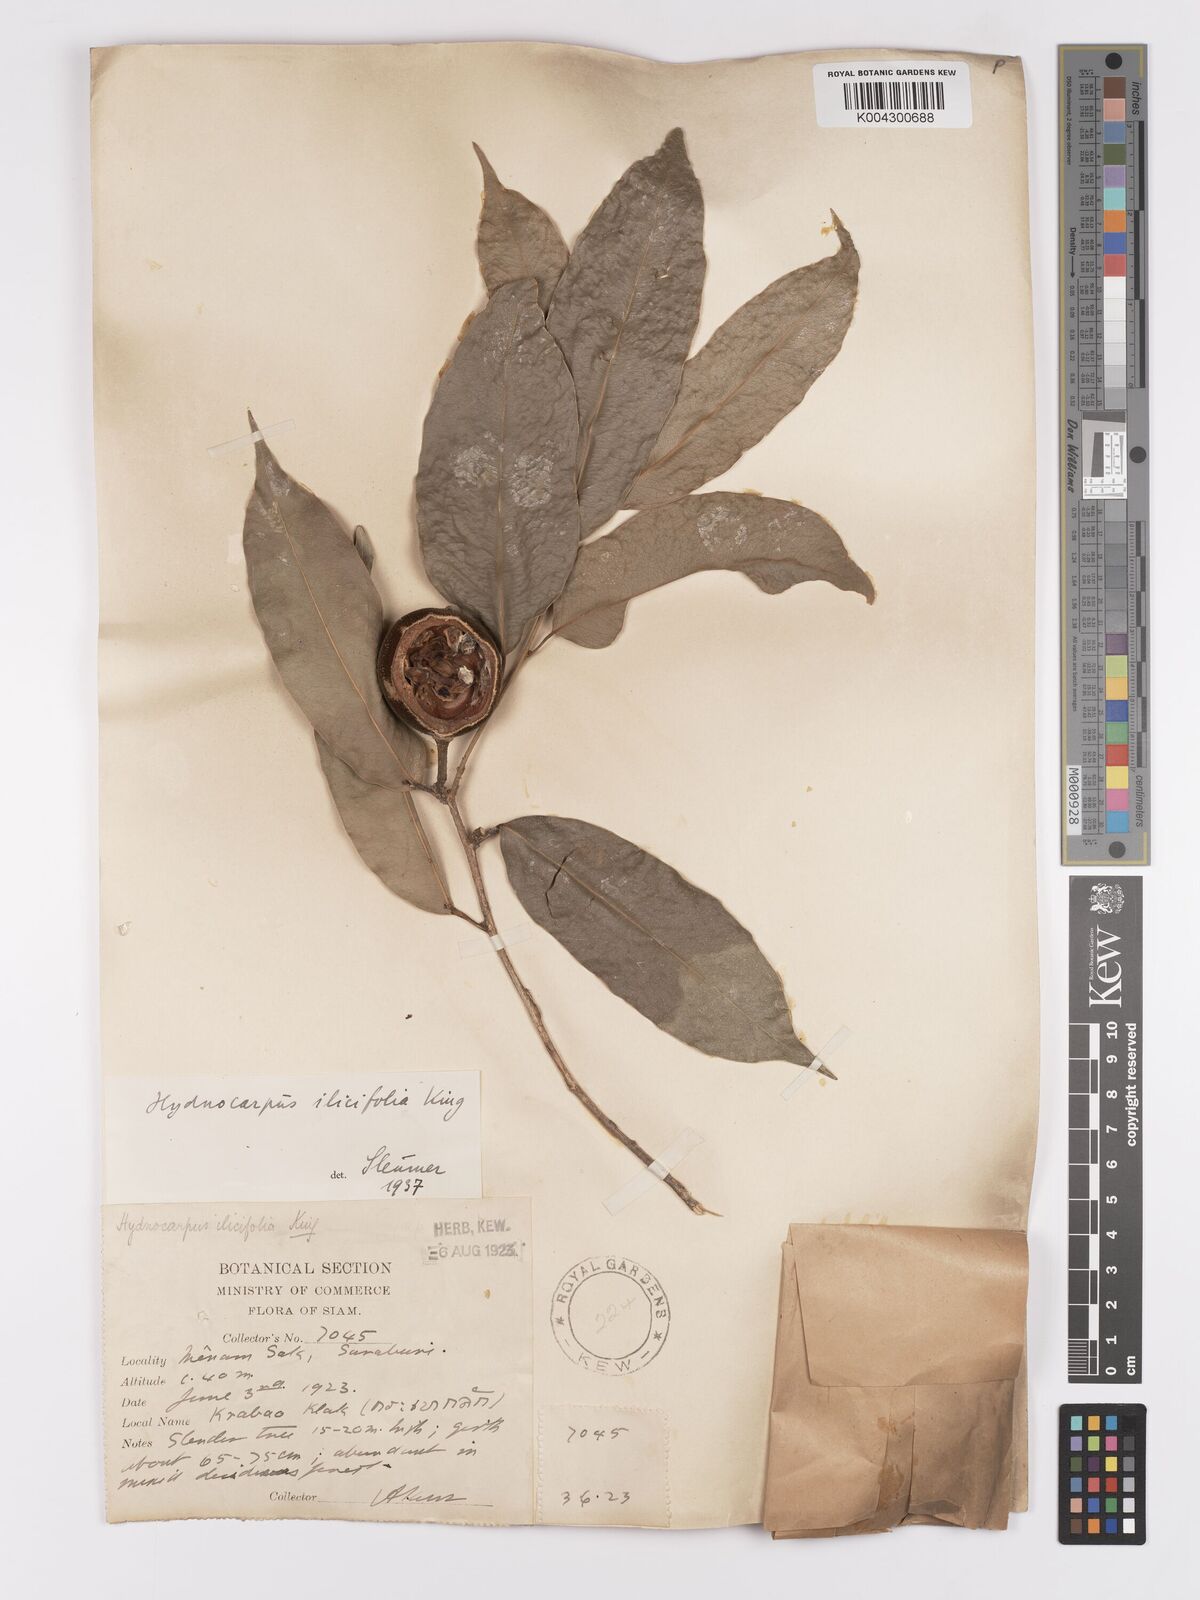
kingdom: Plantae
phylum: Tracheophyta
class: Magnoliopsida
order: Malpighiales
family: Achariaceae
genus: Hydnocarpus
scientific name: Hydnocarpus ilicifolius
